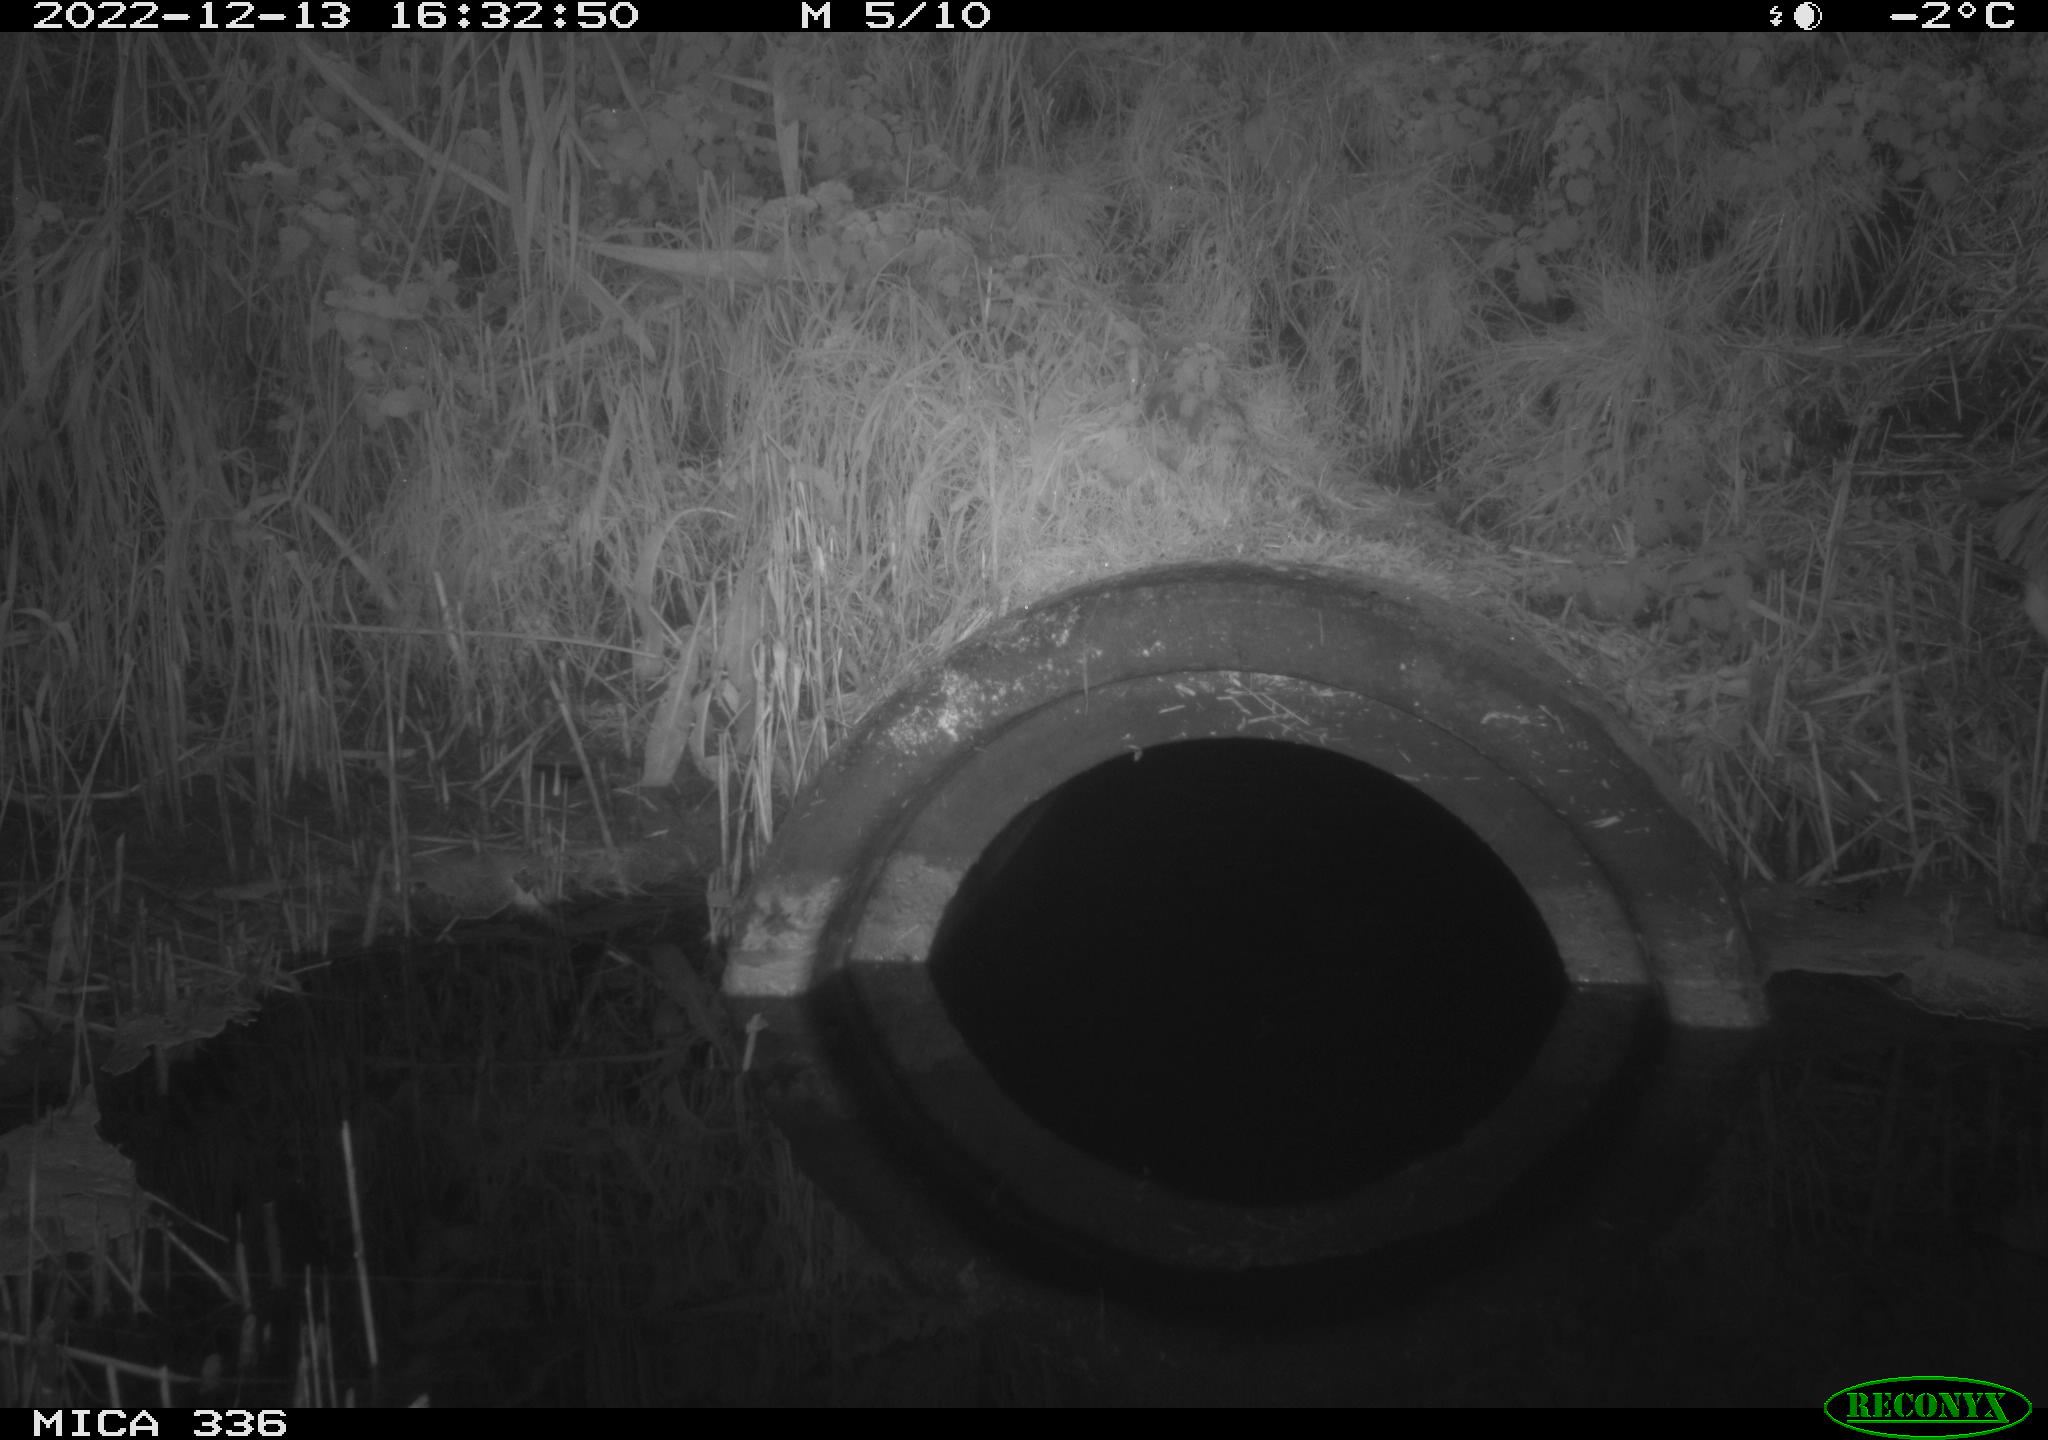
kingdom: Animalia
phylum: Chordata
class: Aves
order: Pelecaniformes
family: Ardeidae
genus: Ardea
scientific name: Ardea cinerea
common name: Grey heron
